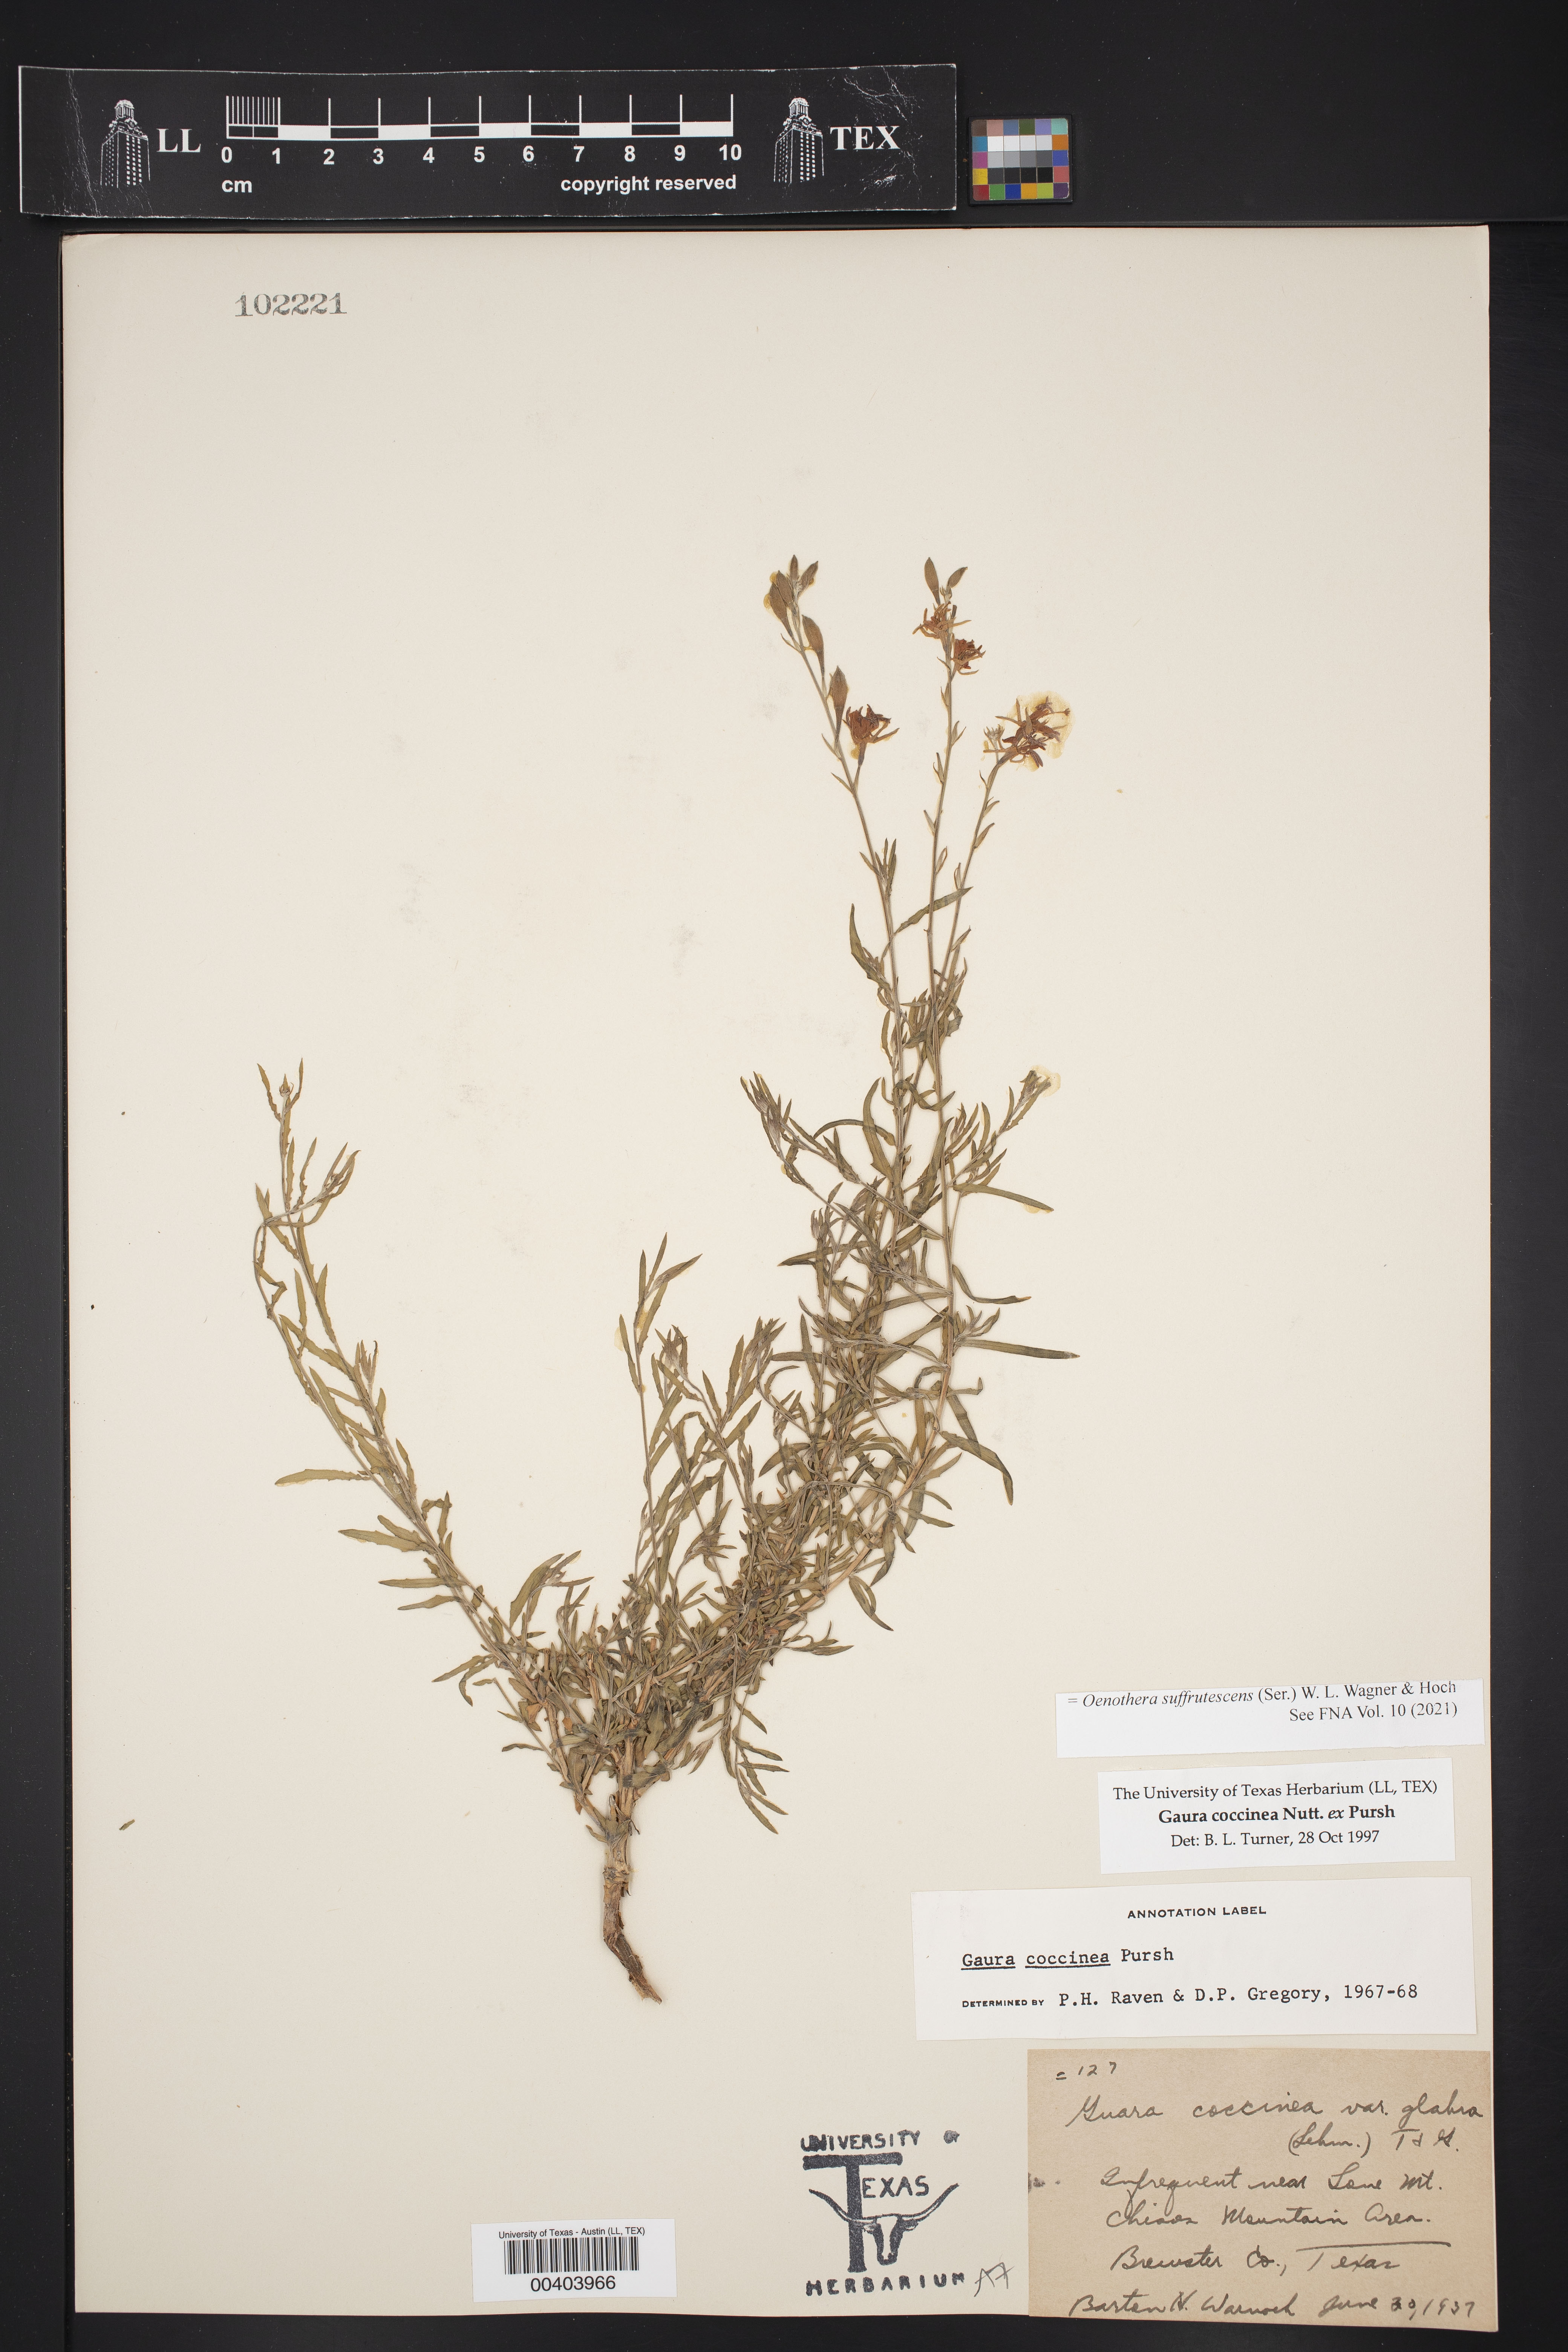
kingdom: Plantae
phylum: Tracheophyta
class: Magnoliopsida
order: Myrtales
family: Onagraceae
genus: Oenothera
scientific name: Oenothera suffrutescens
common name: Scarlet beeblossom
